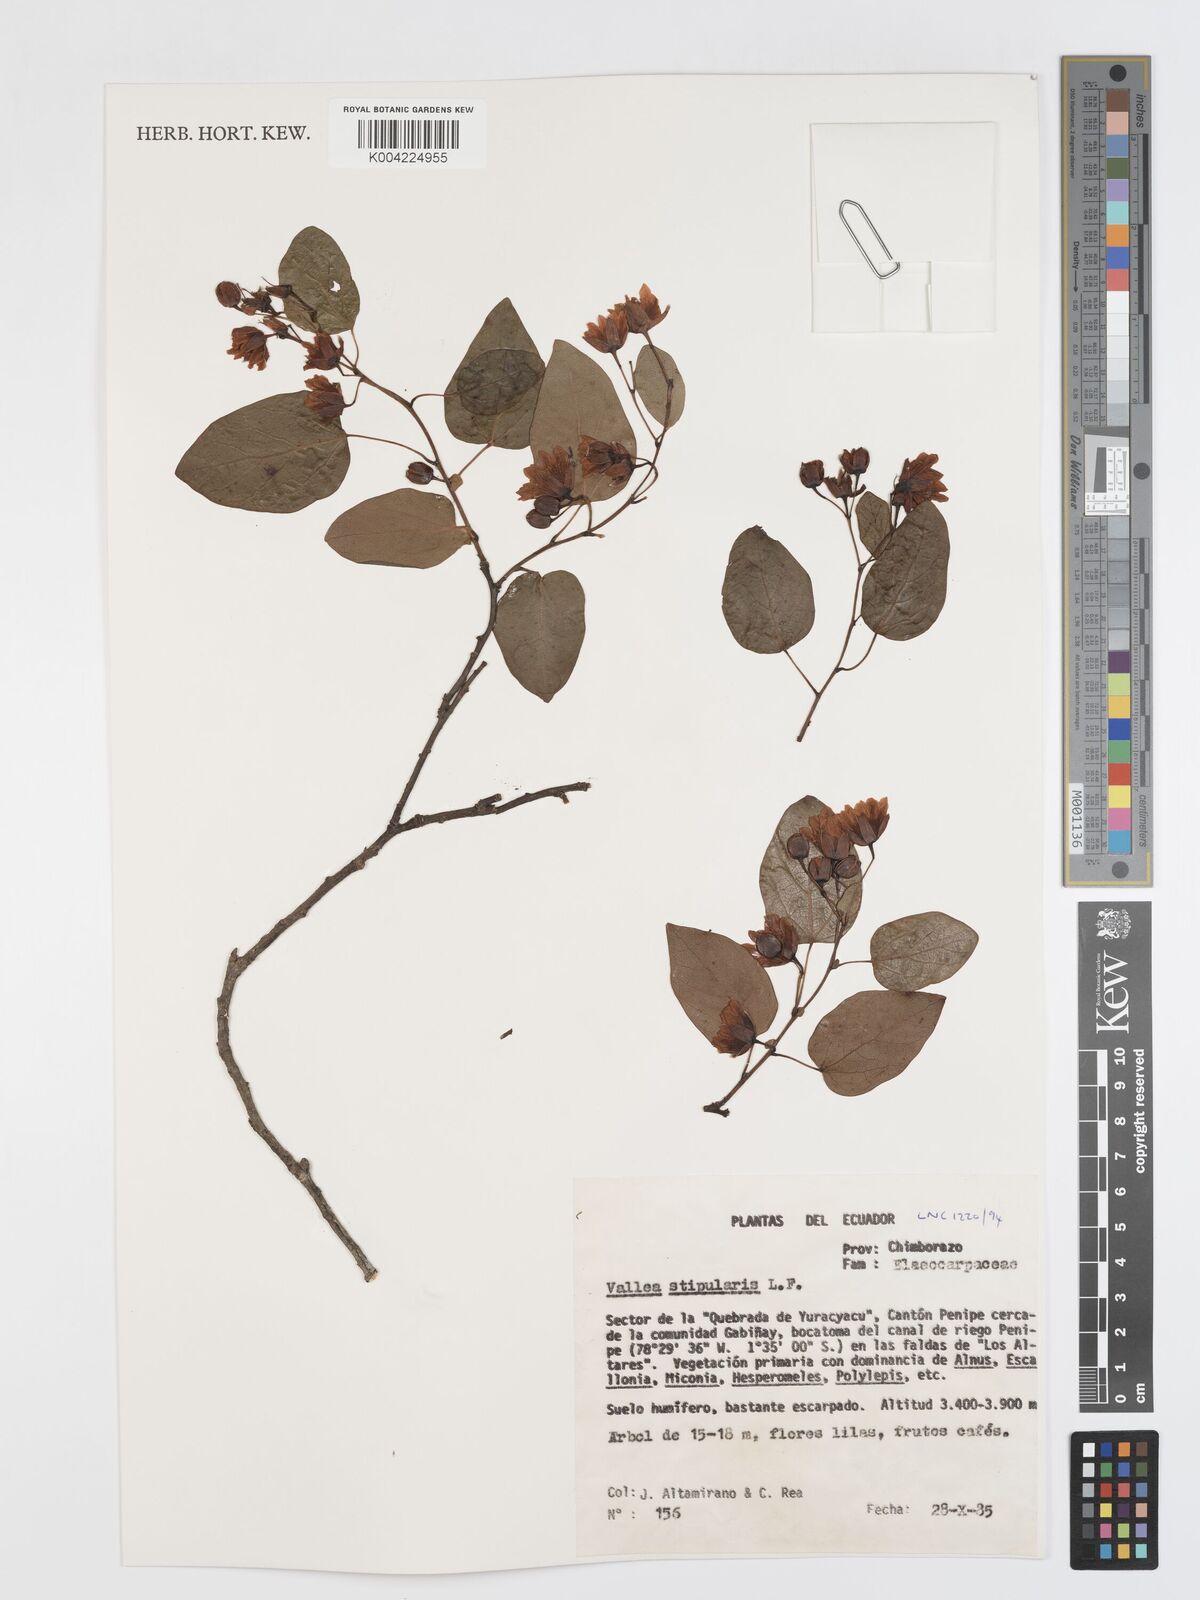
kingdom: Plantae
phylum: Tracheophyta
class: Magnoliopsida
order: Oxalidales
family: Elaeocarpaceae
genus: Vallea
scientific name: Vallea stipularis
